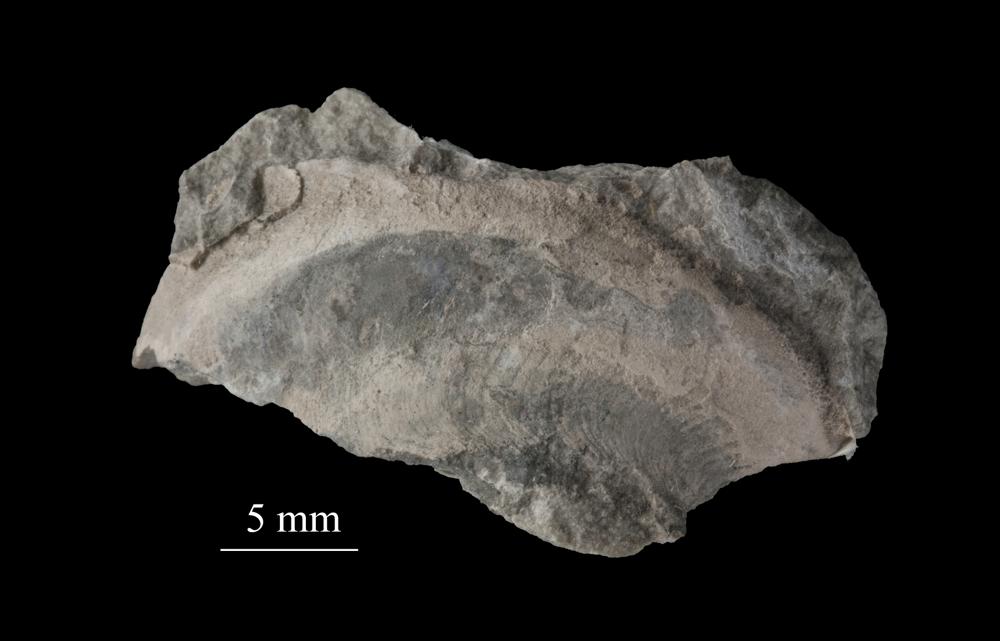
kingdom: Animalia
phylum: Mollusca
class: Gastropoda
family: Euomphalidae
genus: Ecculiomphalus
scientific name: Ecculiomphalus
